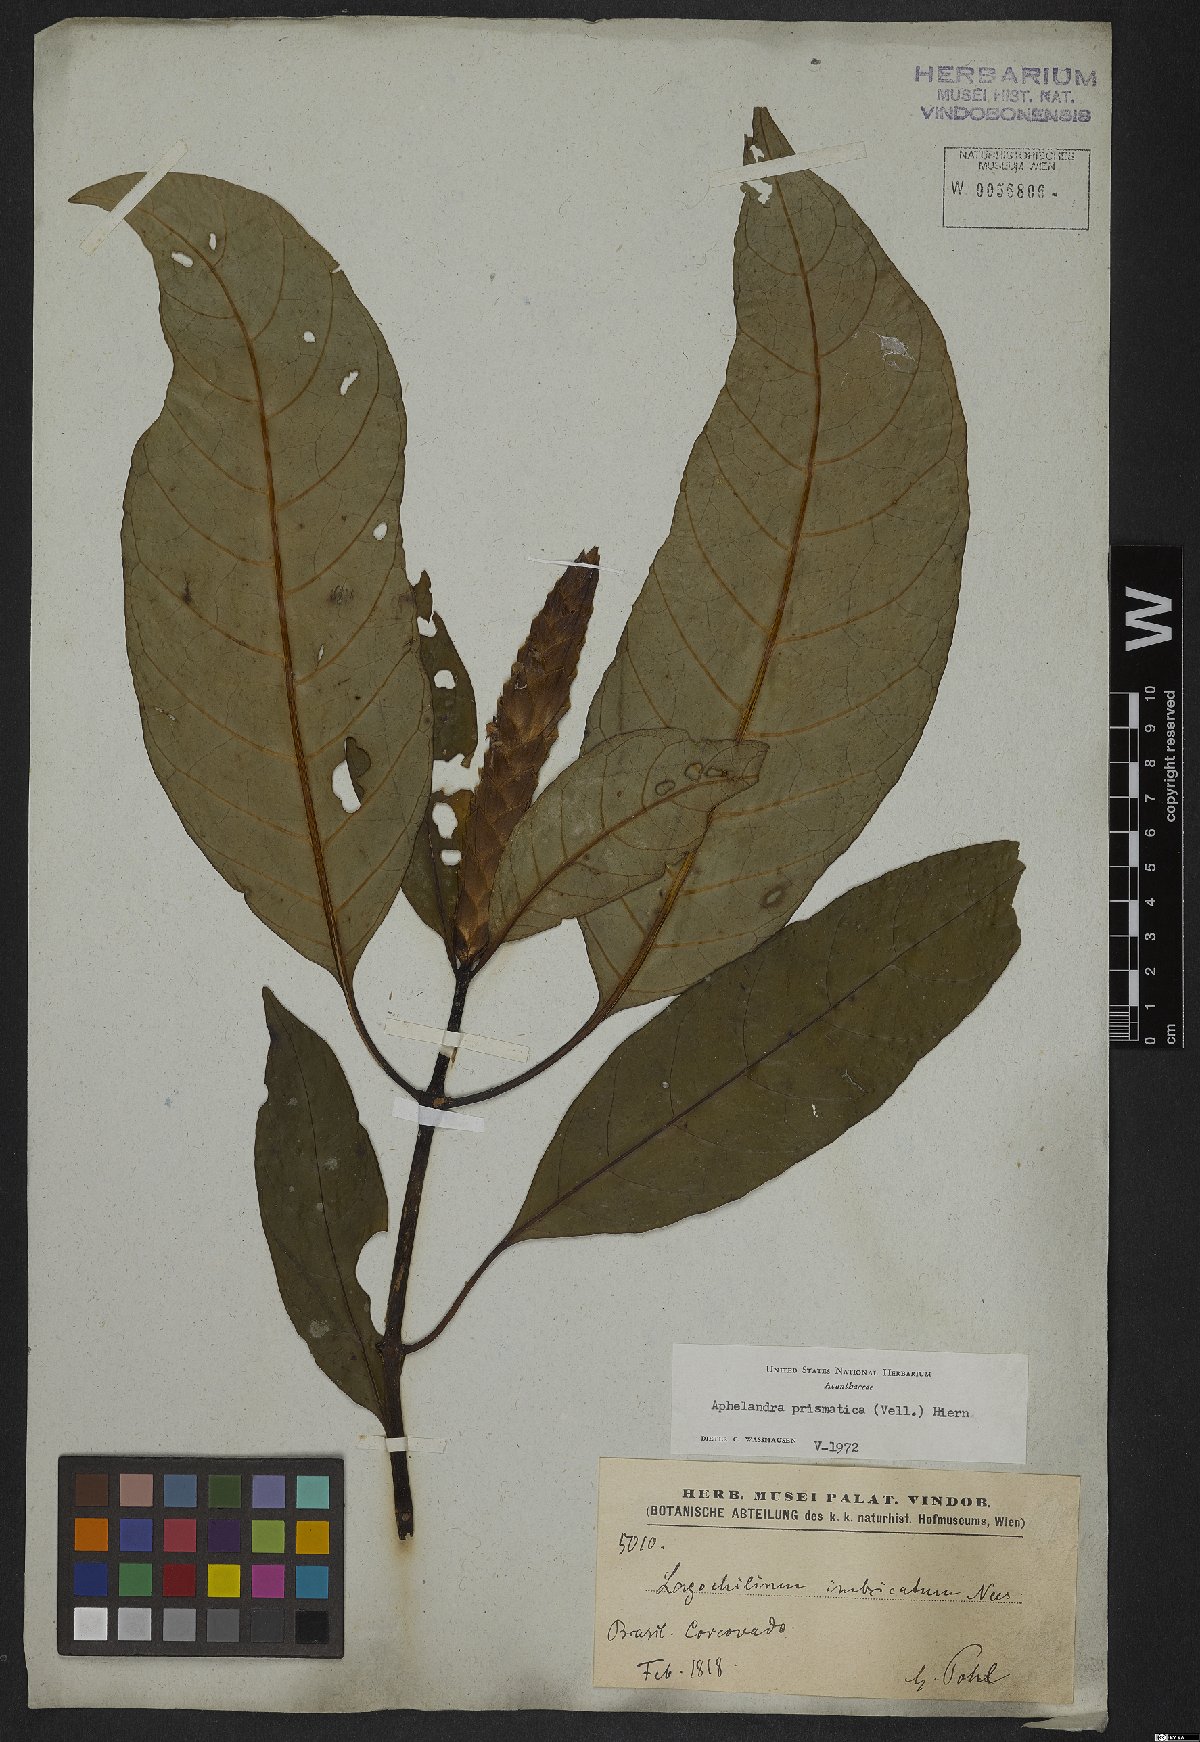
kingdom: Plantae
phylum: Tracheophyta
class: Magnoliopsida
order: Lamiales
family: Acanthaceae
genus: Aphelandra
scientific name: Aphelandra prismatica
